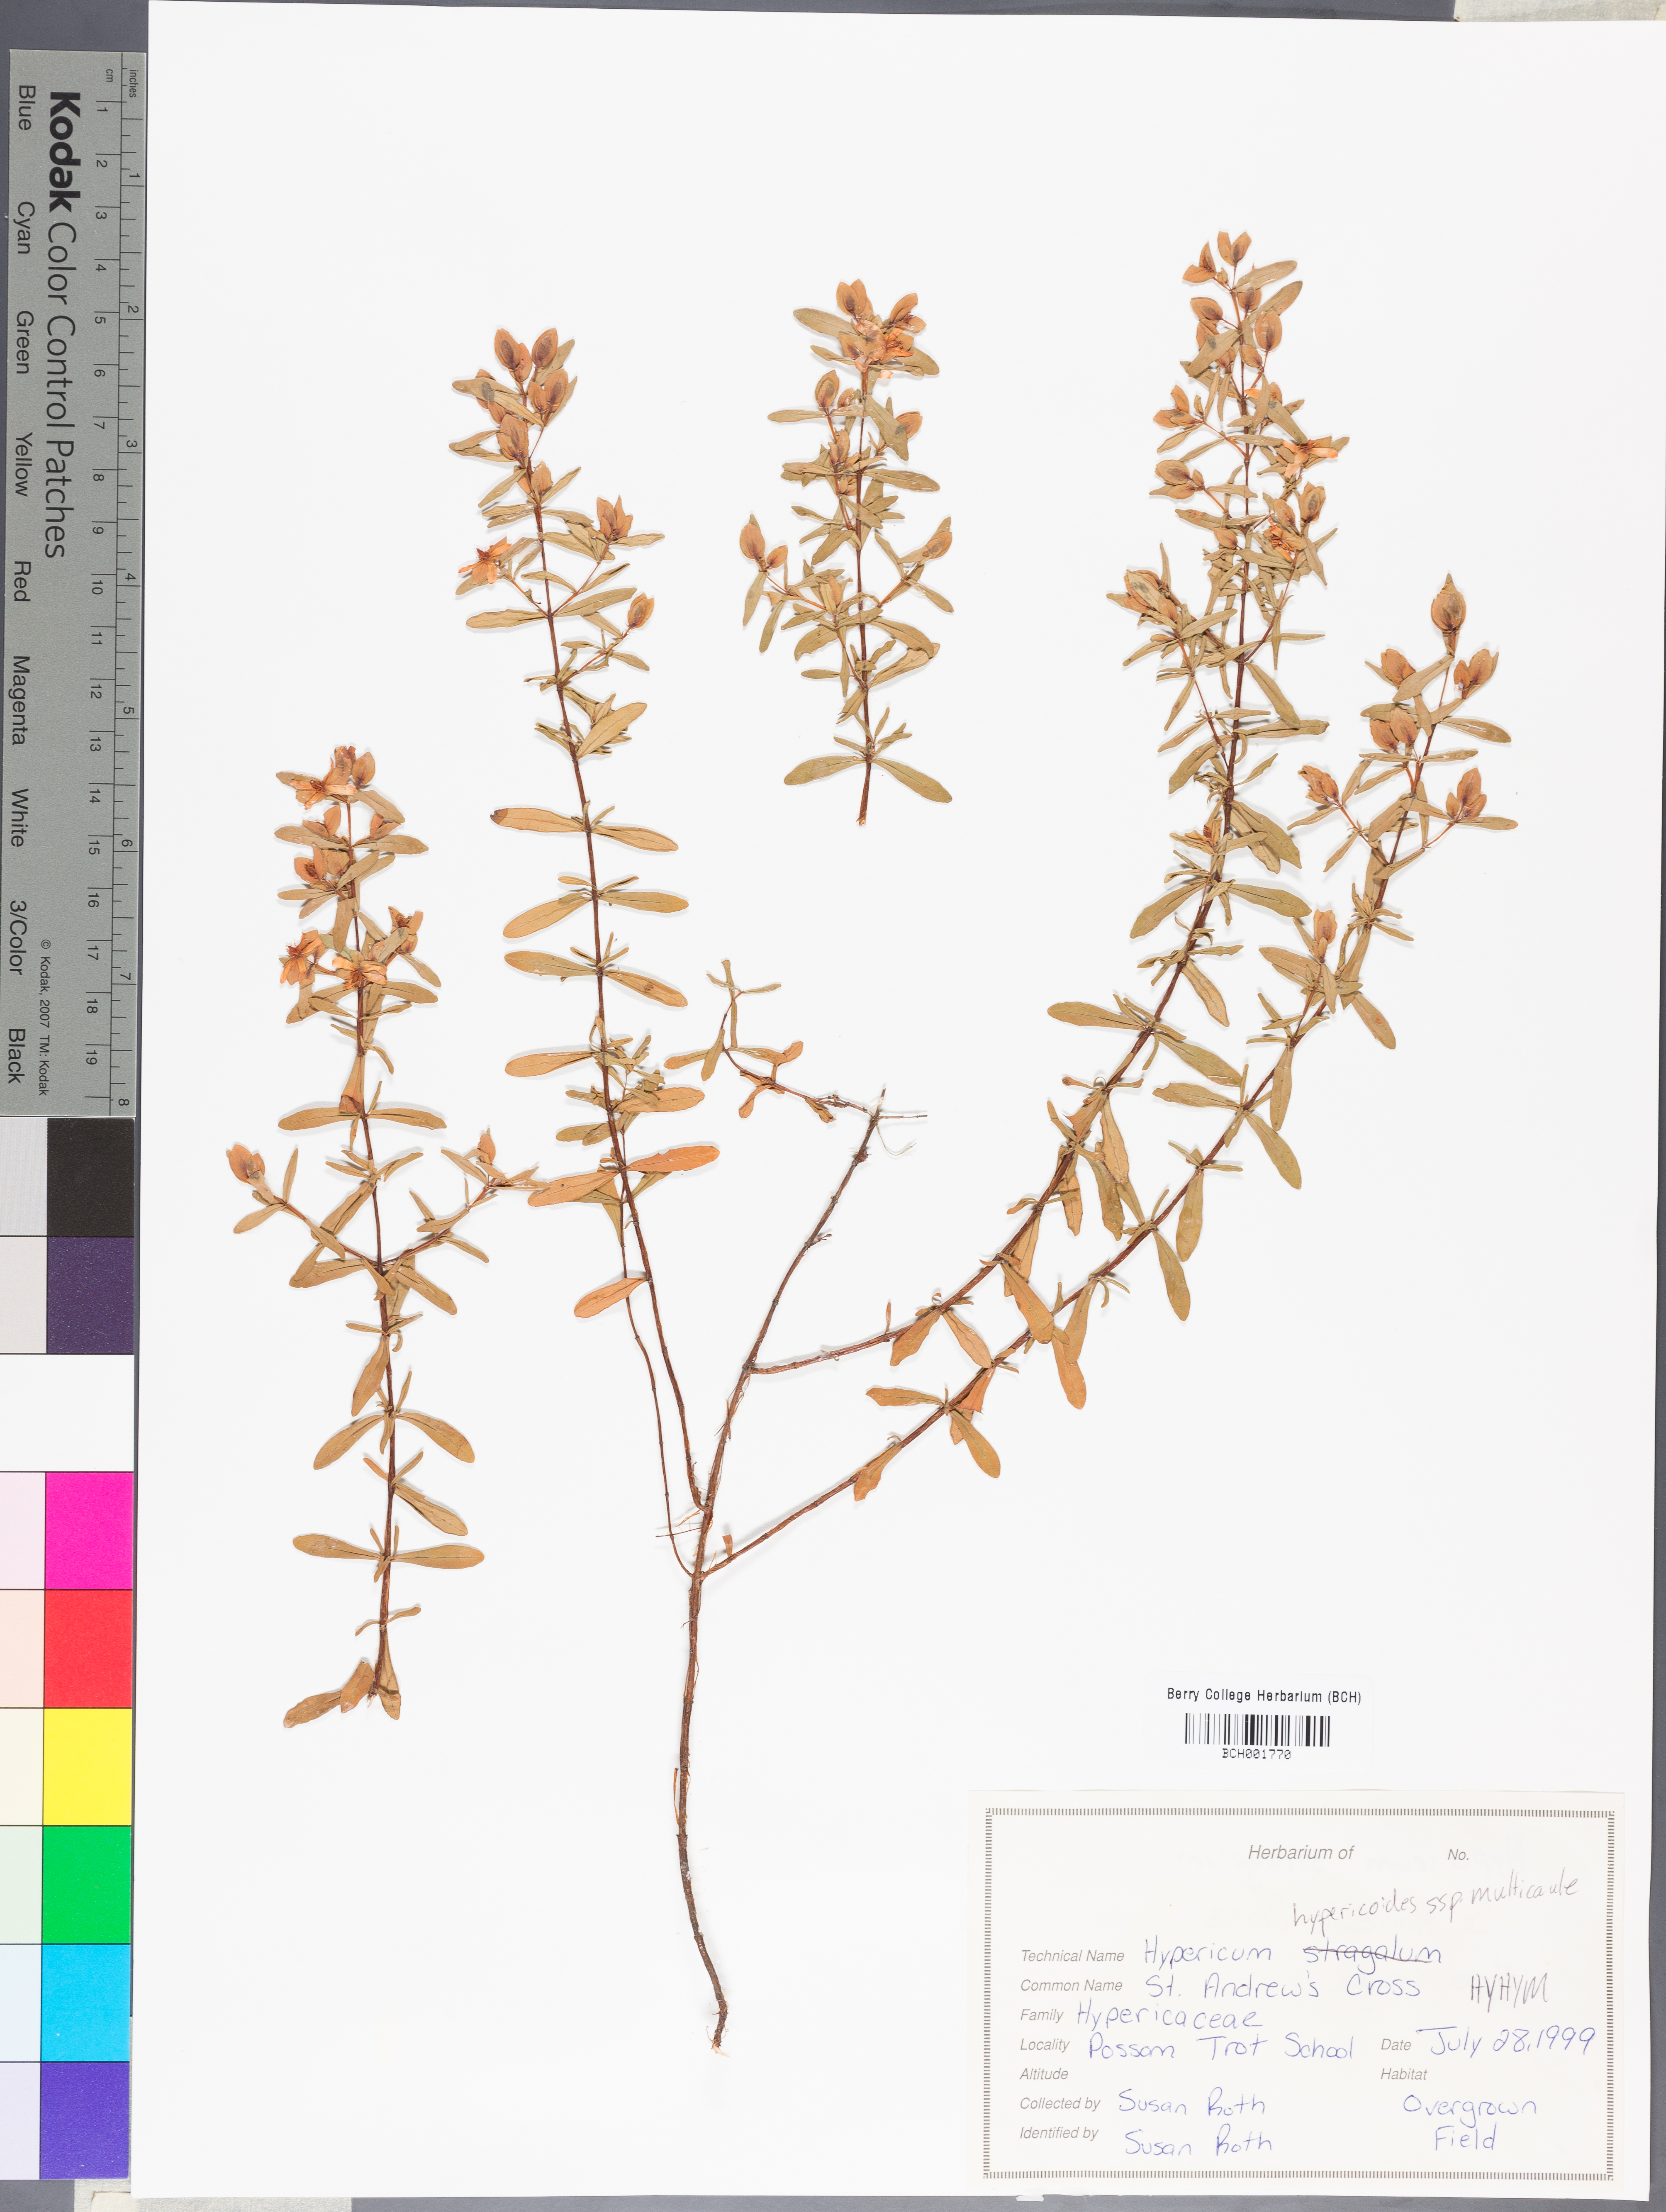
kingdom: Plantae
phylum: Tracheophyta
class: Magnoliopsida
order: Malpighiales
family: Hypericaceae
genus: Hypericum
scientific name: Hypericum hypericoides
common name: St. andrew's cross
